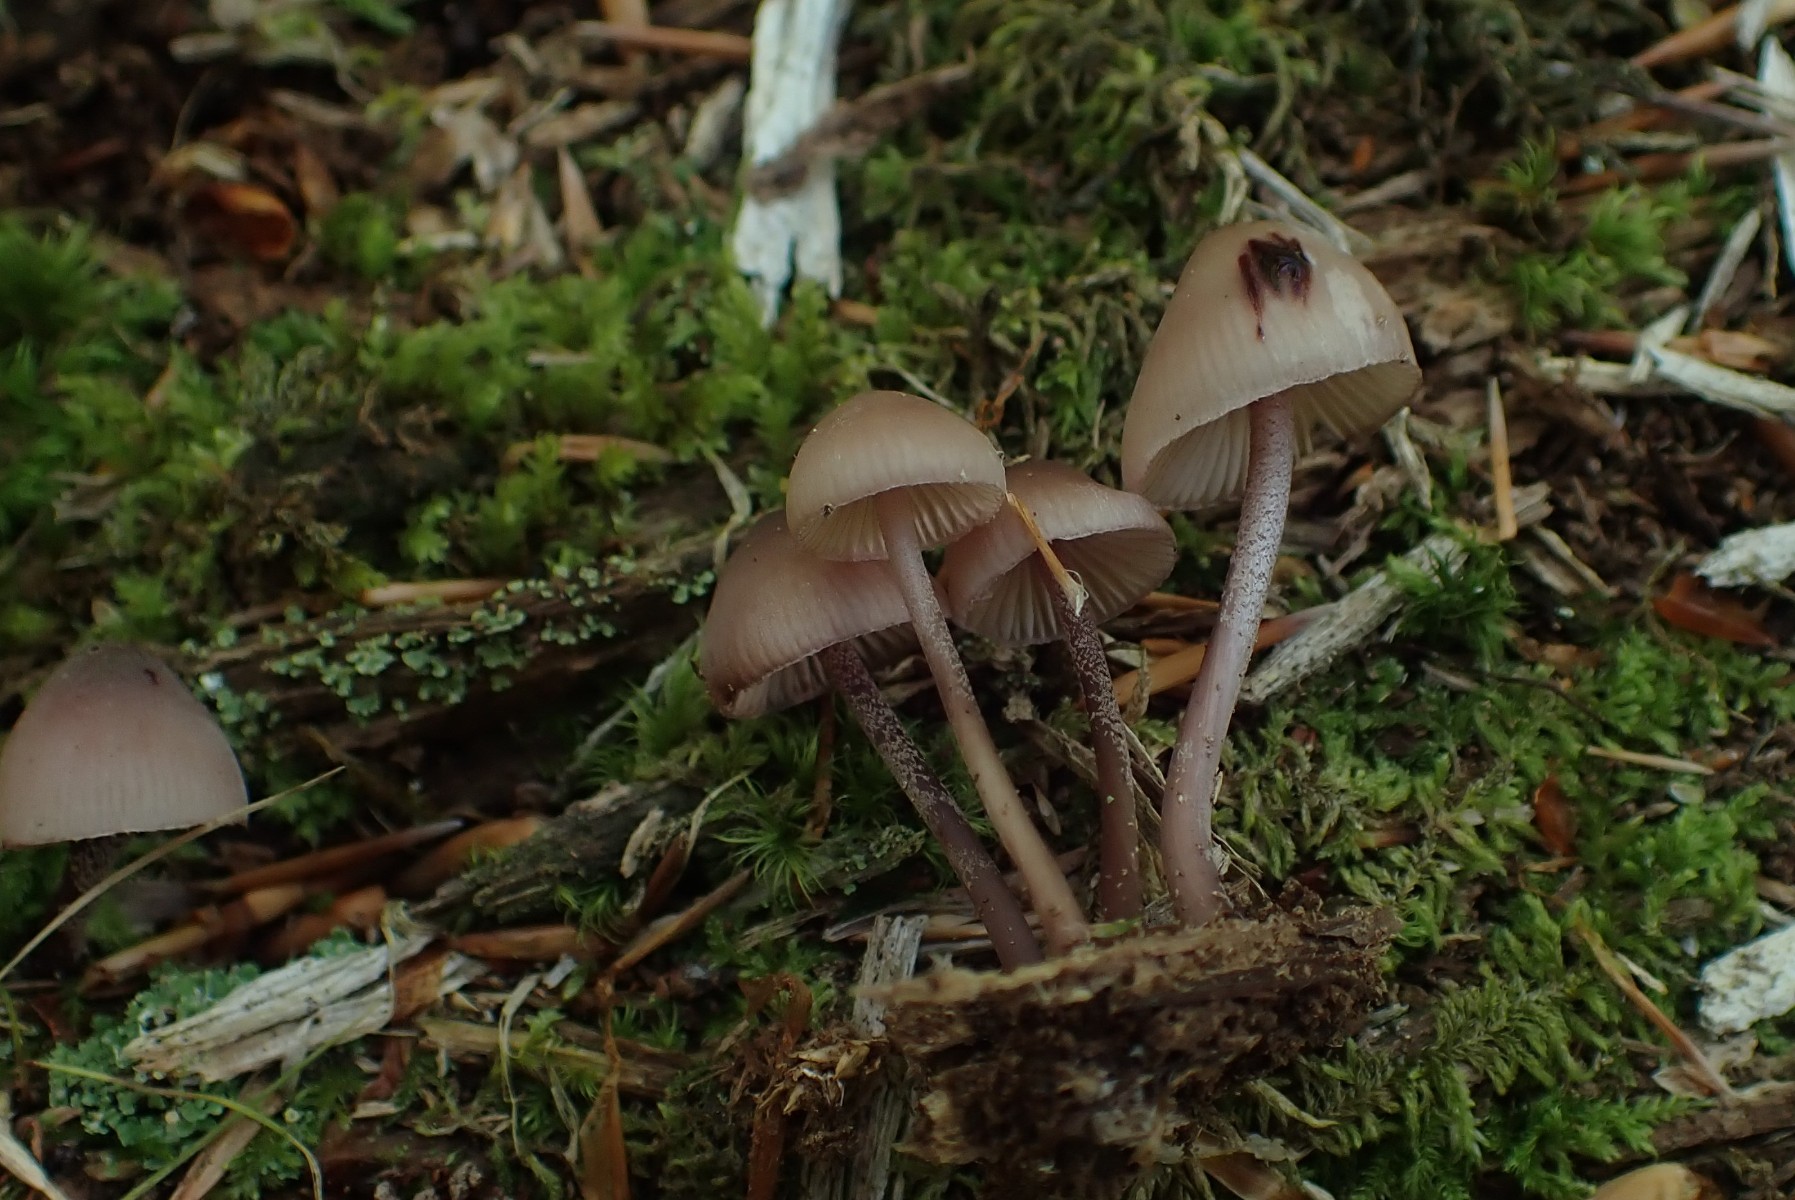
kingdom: Fungi
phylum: Basidiomycota
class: Agaricomycetes
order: Agaricales
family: Mycenaceae
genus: Mycena
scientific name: Mycena haematopus
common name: blødende huesvamp
